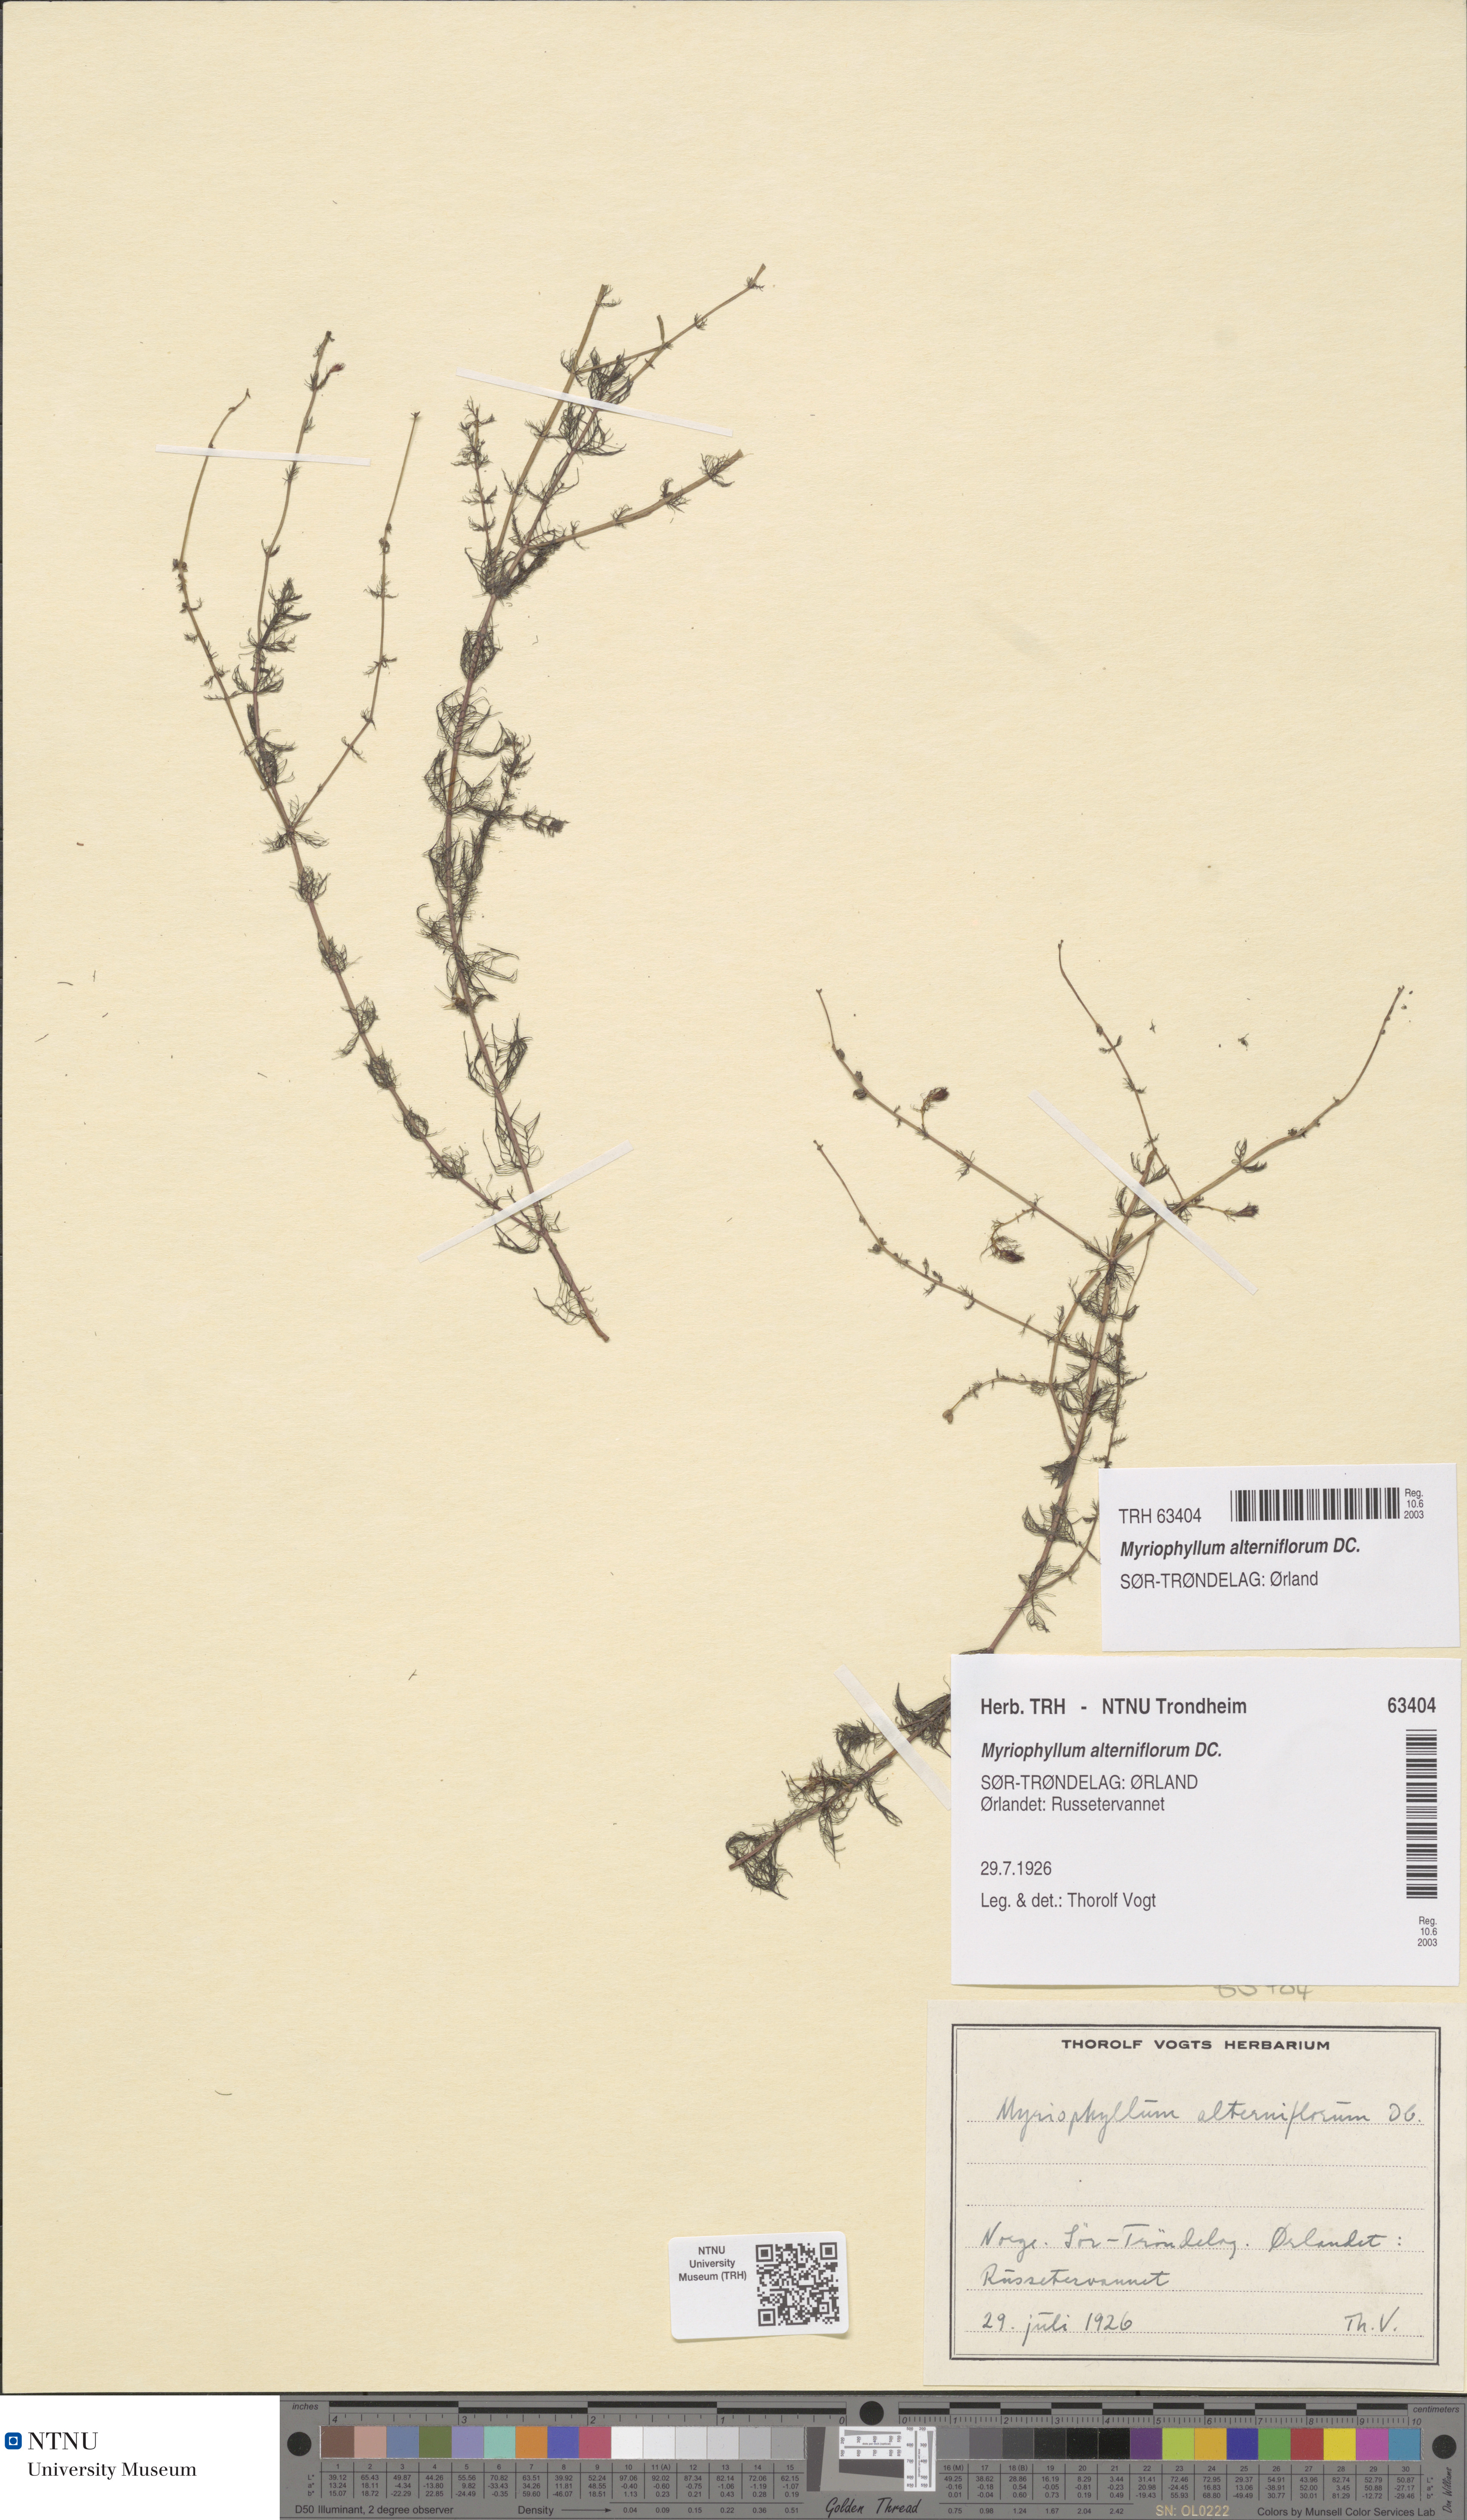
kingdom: Plantae
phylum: Tracheophyta
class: Magnoliopsida
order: Saxifragales
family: Haloragaceae
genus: Myriophyllum
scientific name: Myriophyllum alterniflorum
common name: Alternate water-milfoil
